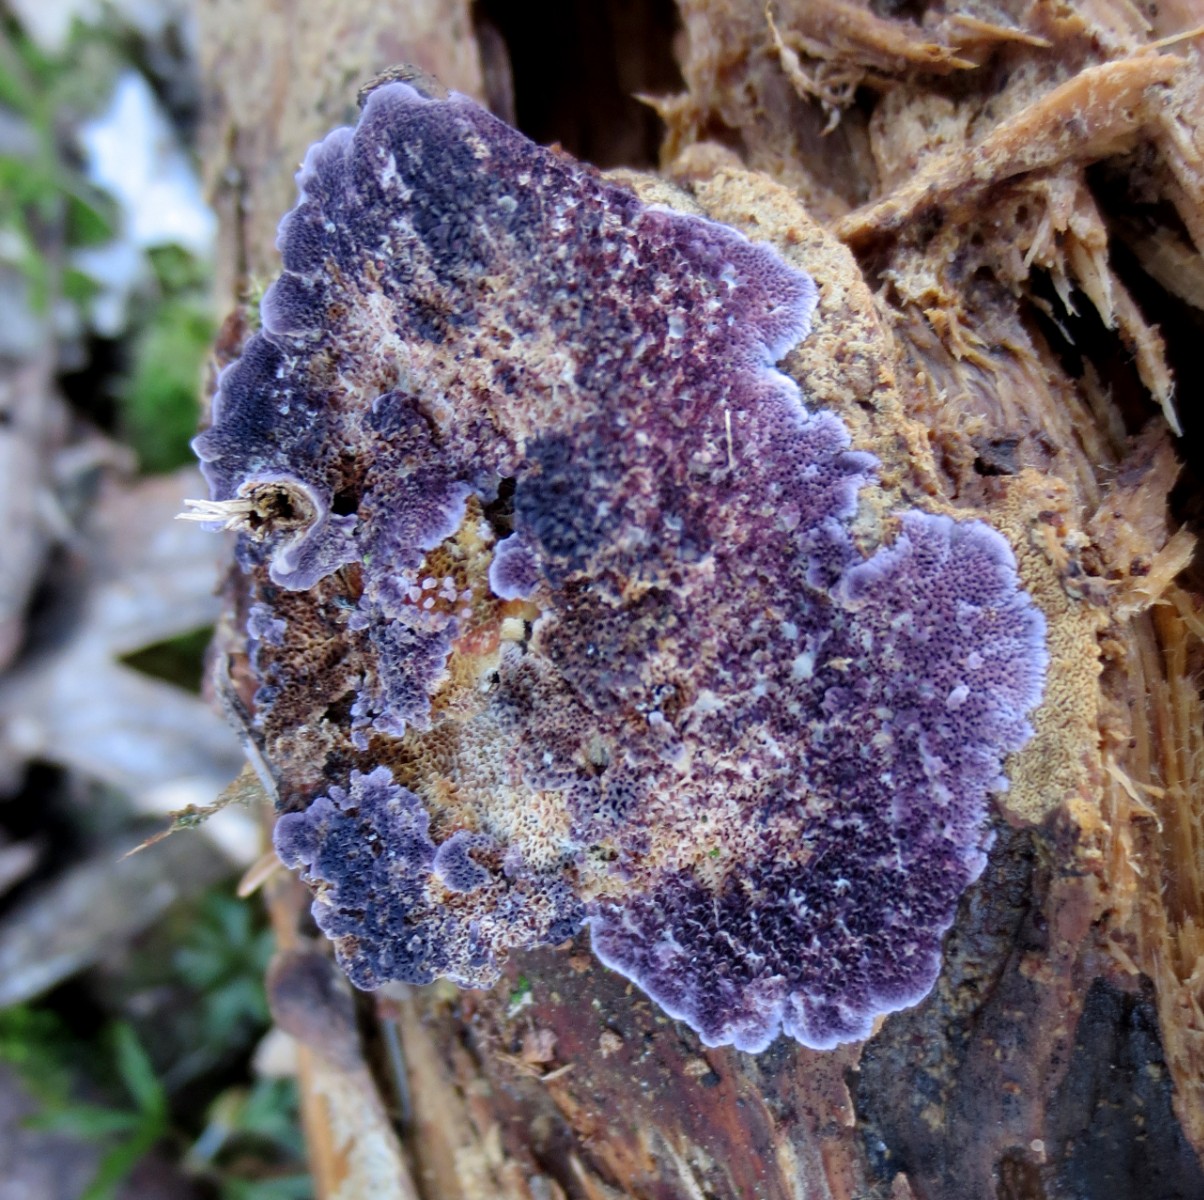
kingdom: Fungi
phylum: Basidiomycota
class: Agaricomycetes
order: Hymenochaetales
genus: Trichaptum
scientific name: Trichaptum abietinum
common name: almindelig violporesvamp
